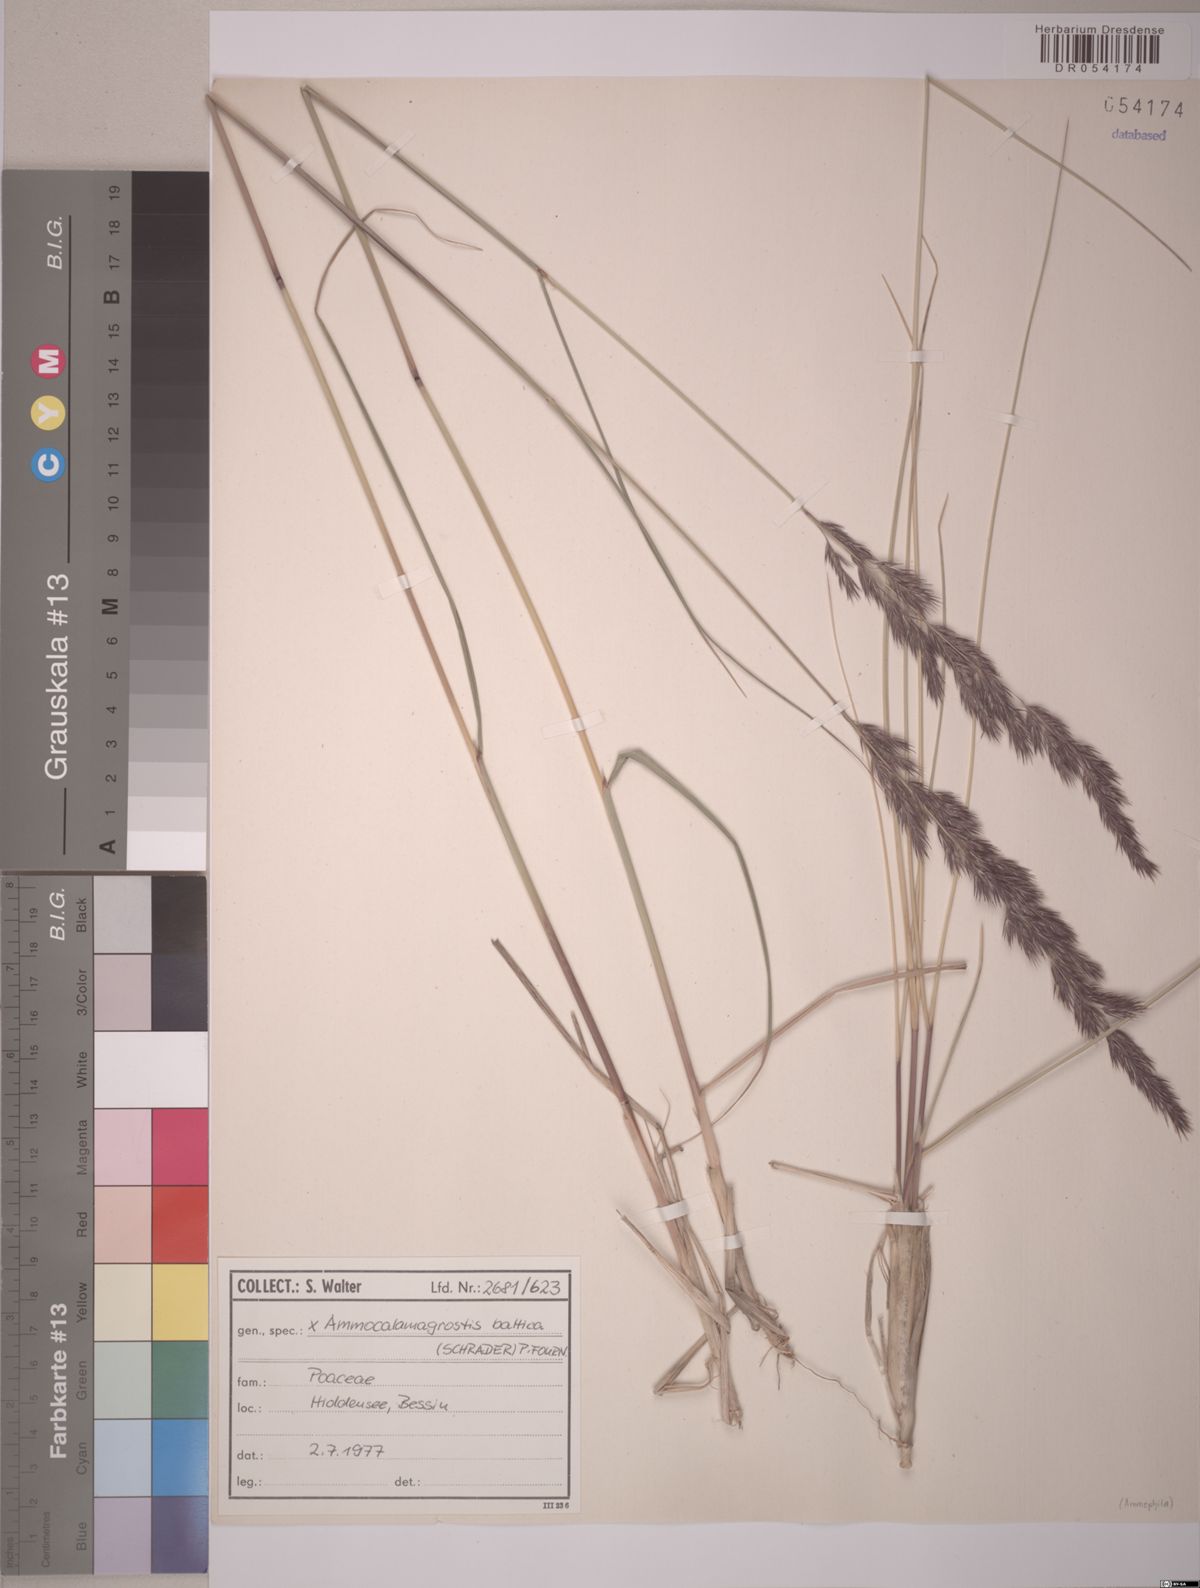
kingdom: Plantae
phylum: Tracheophyta
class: Liliopsida
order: Poales
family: Poaceae
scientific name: Poaceae
